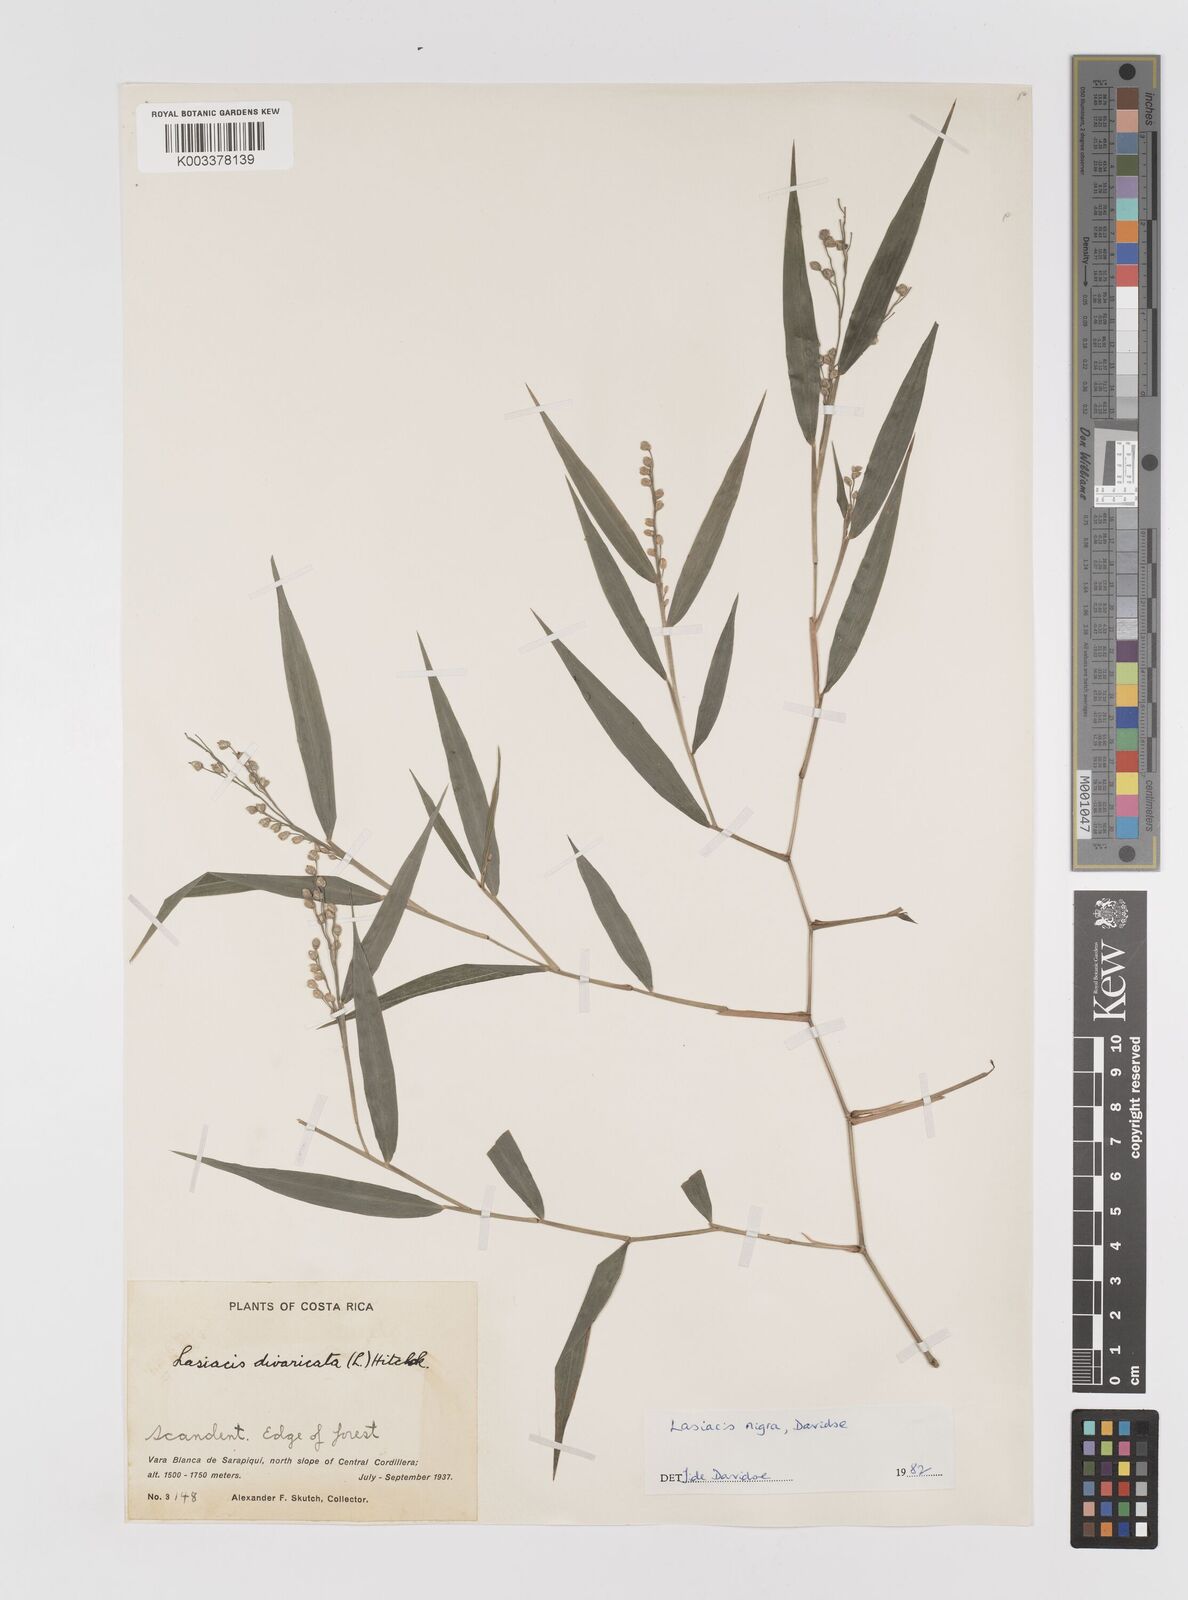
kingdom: Plantae
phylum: Tracheophyta
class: Liliopsida
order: Poales
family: Poaceae
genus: Lasiacis
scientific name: Lasiacis nigra
